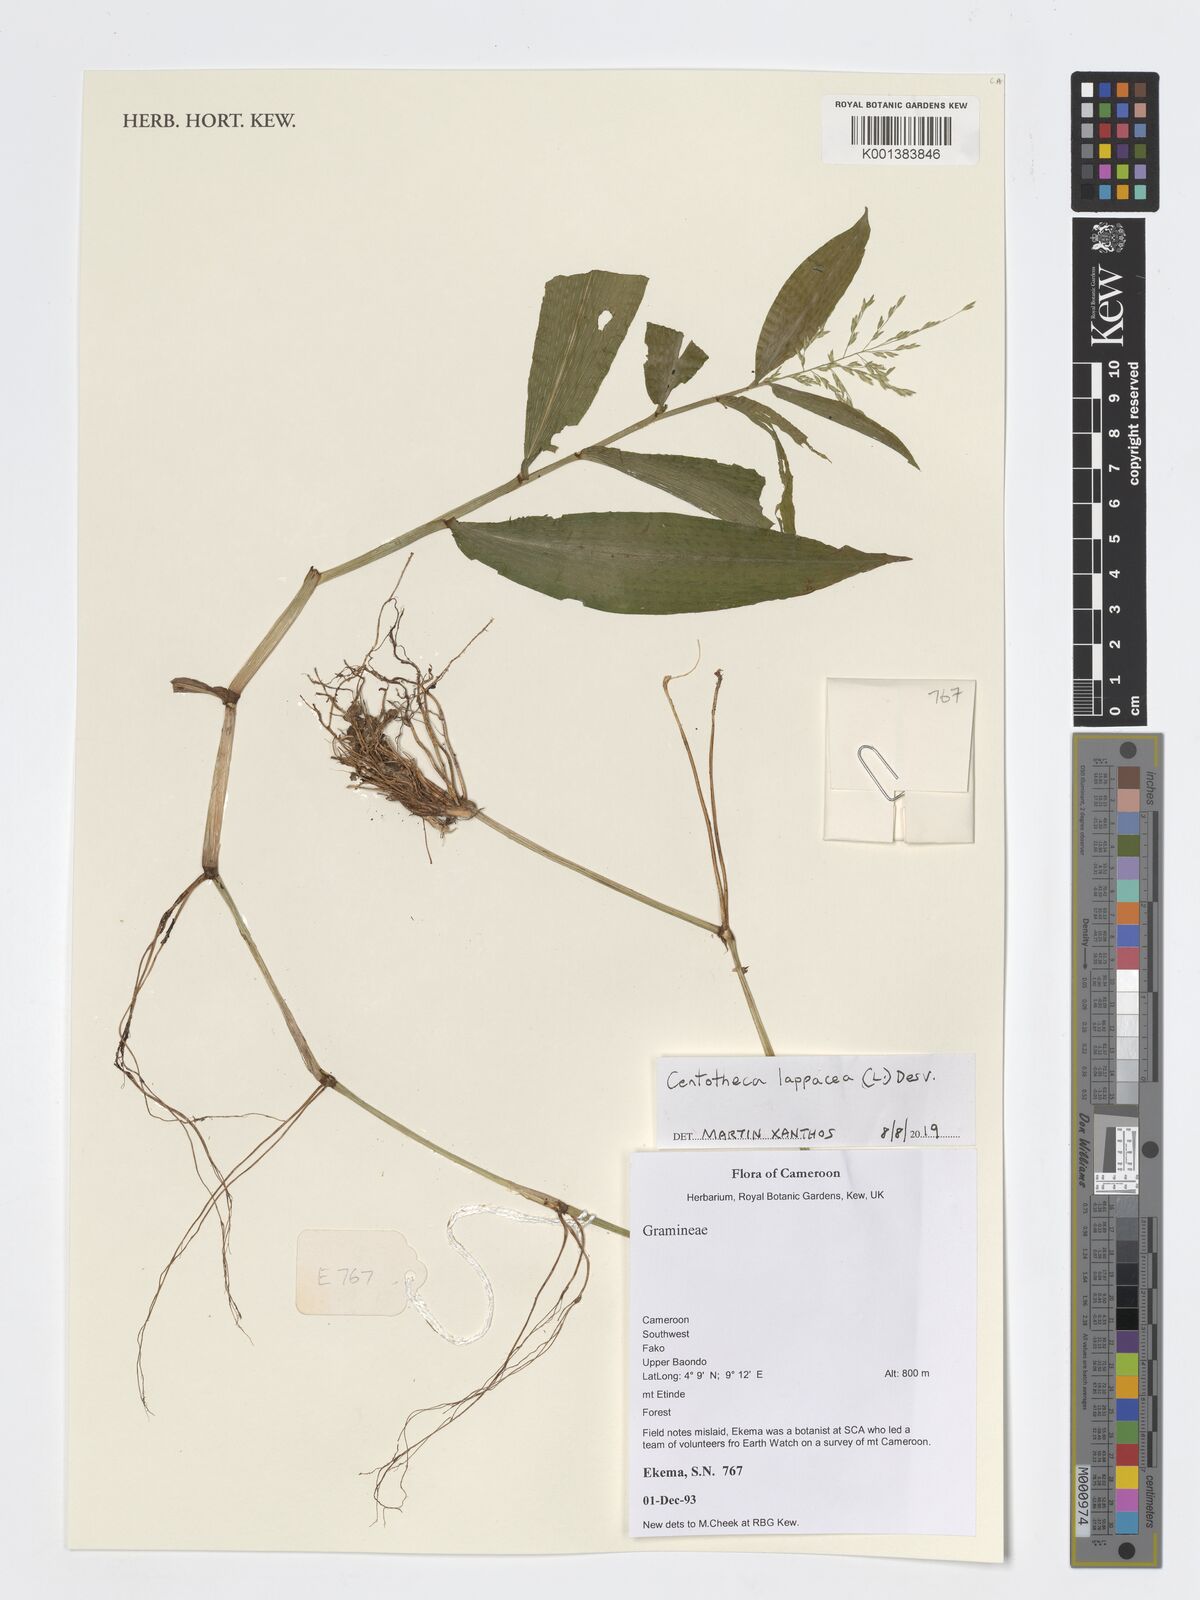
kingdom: Plantae
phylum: Tracheophyta
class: Liliopsida
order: Poales
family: Poaceae
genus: Centotheca
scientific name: Centotheca lappacea
